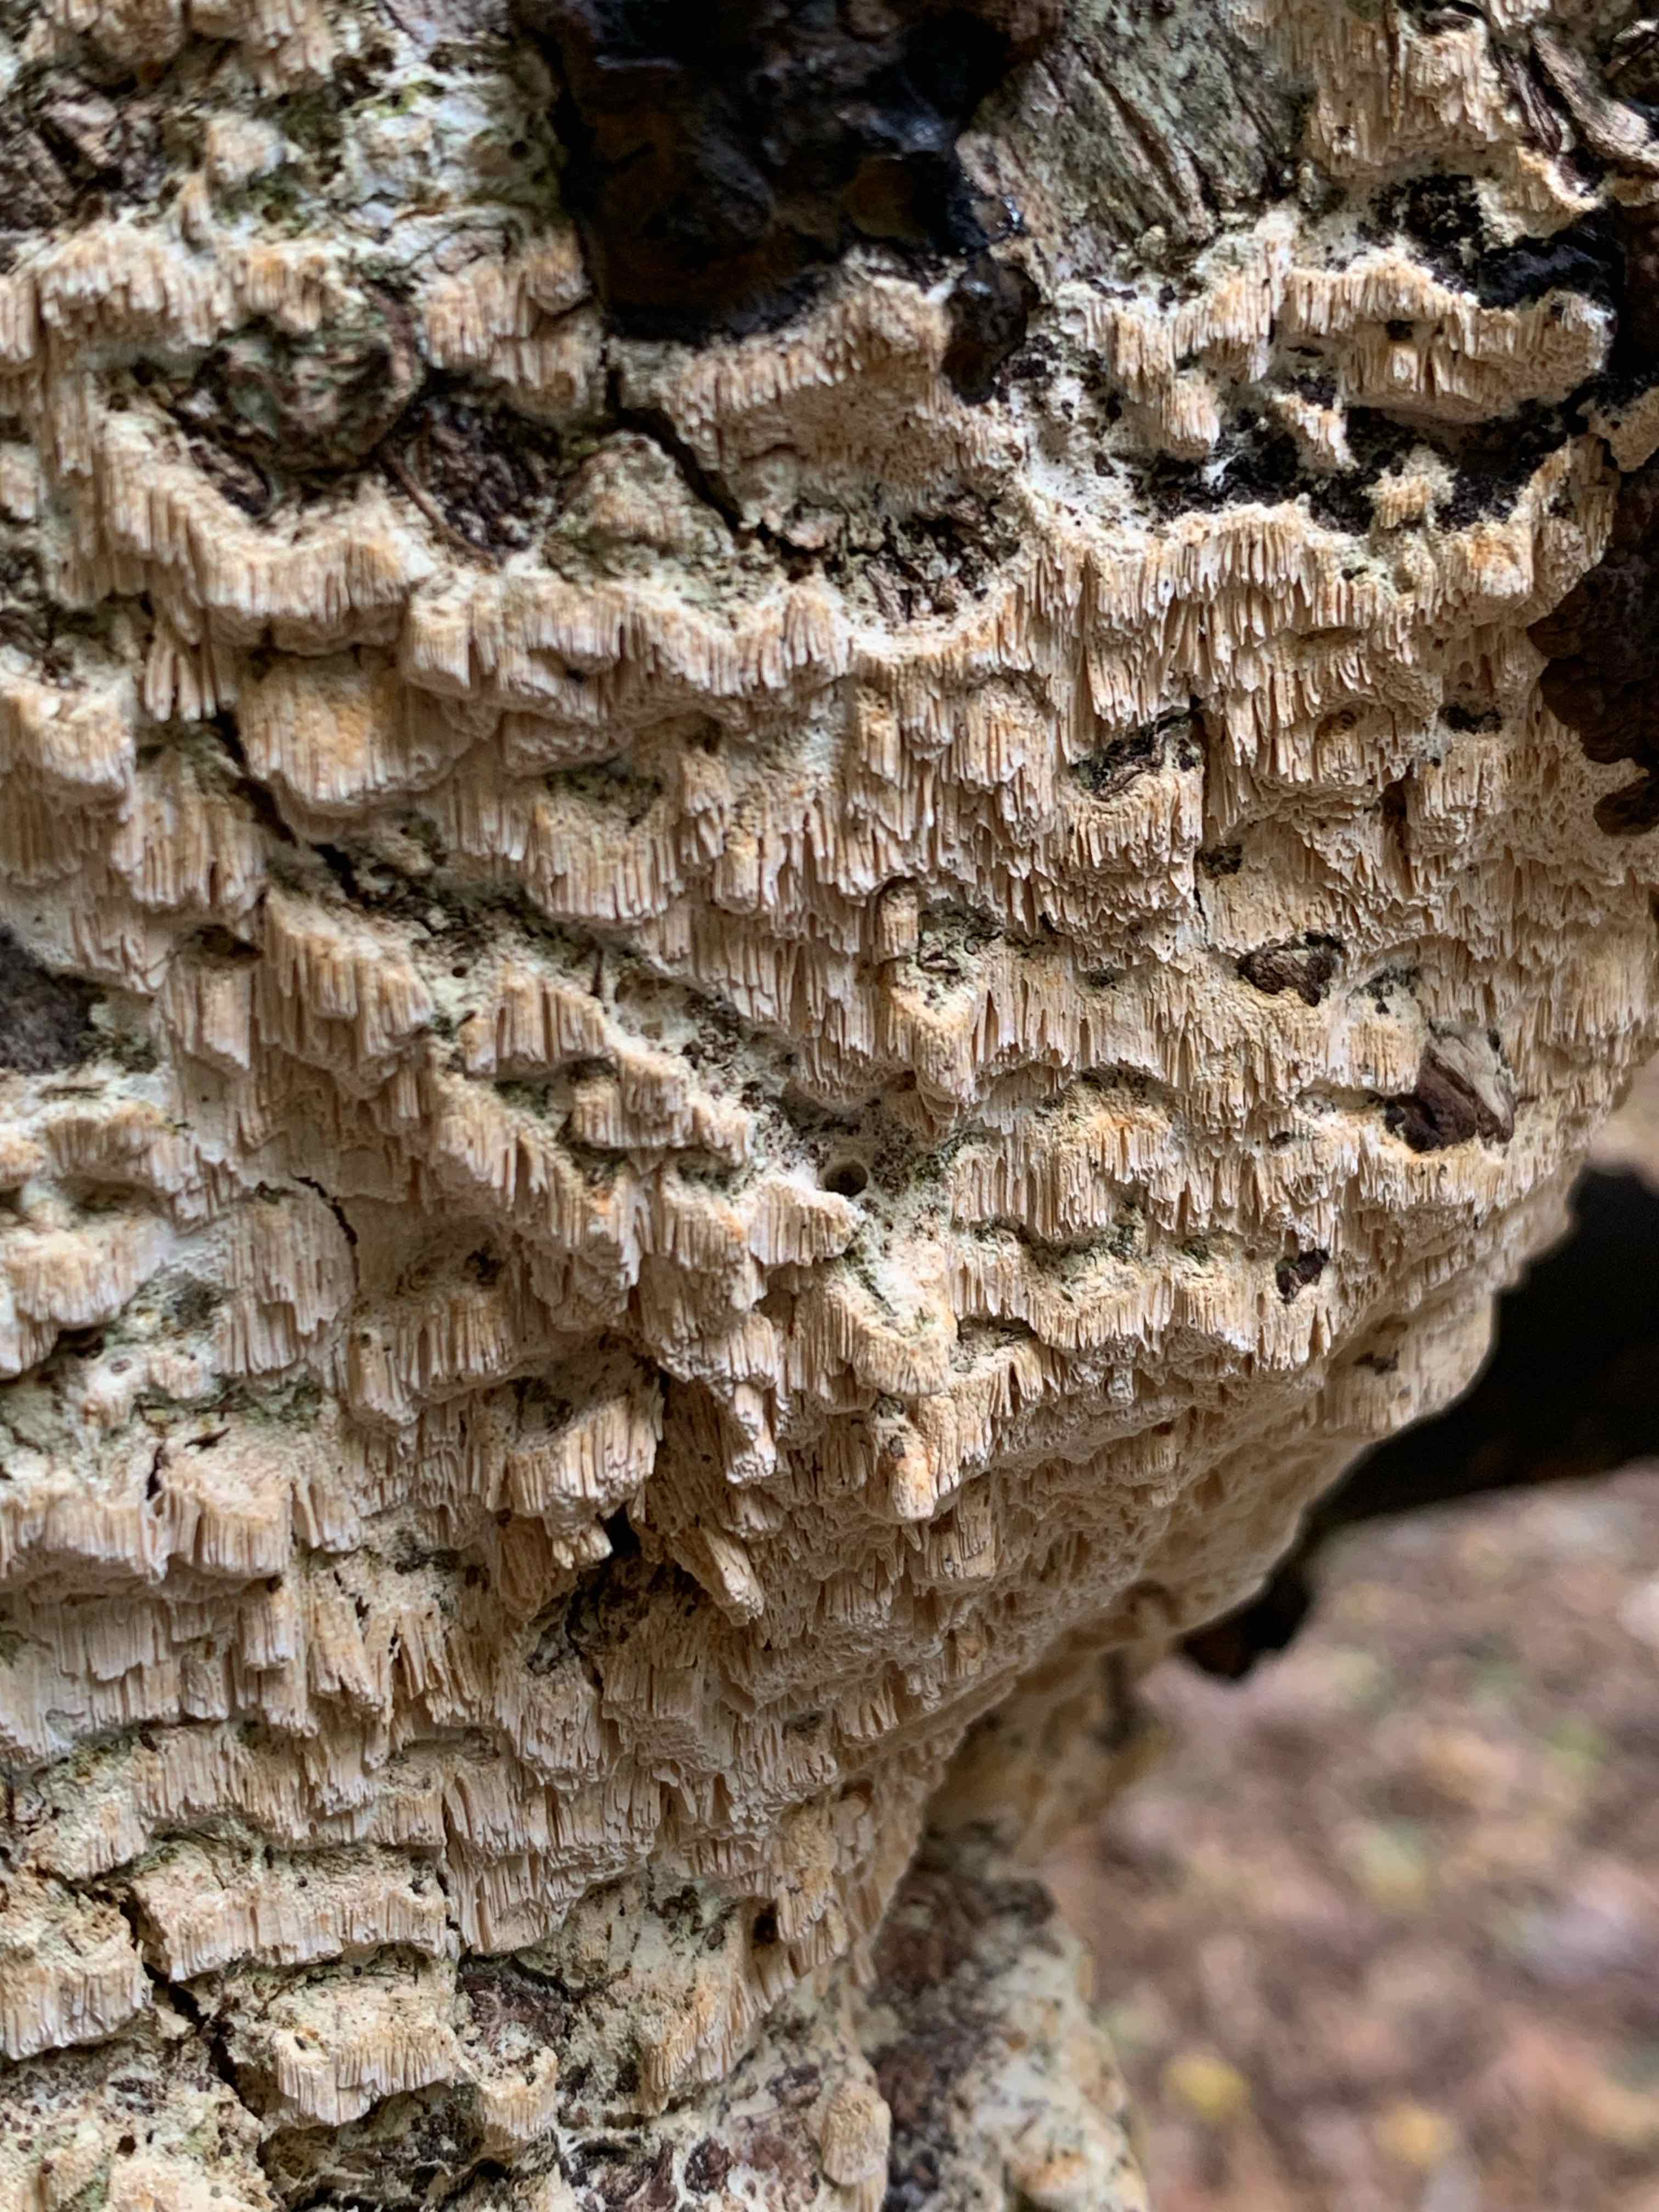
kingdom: Fungi
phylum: Basidiomycota
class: Agaricomycetes
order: Hymenochaetales
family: Schizoporaceae
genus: Xylodon
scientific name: Xylodon
